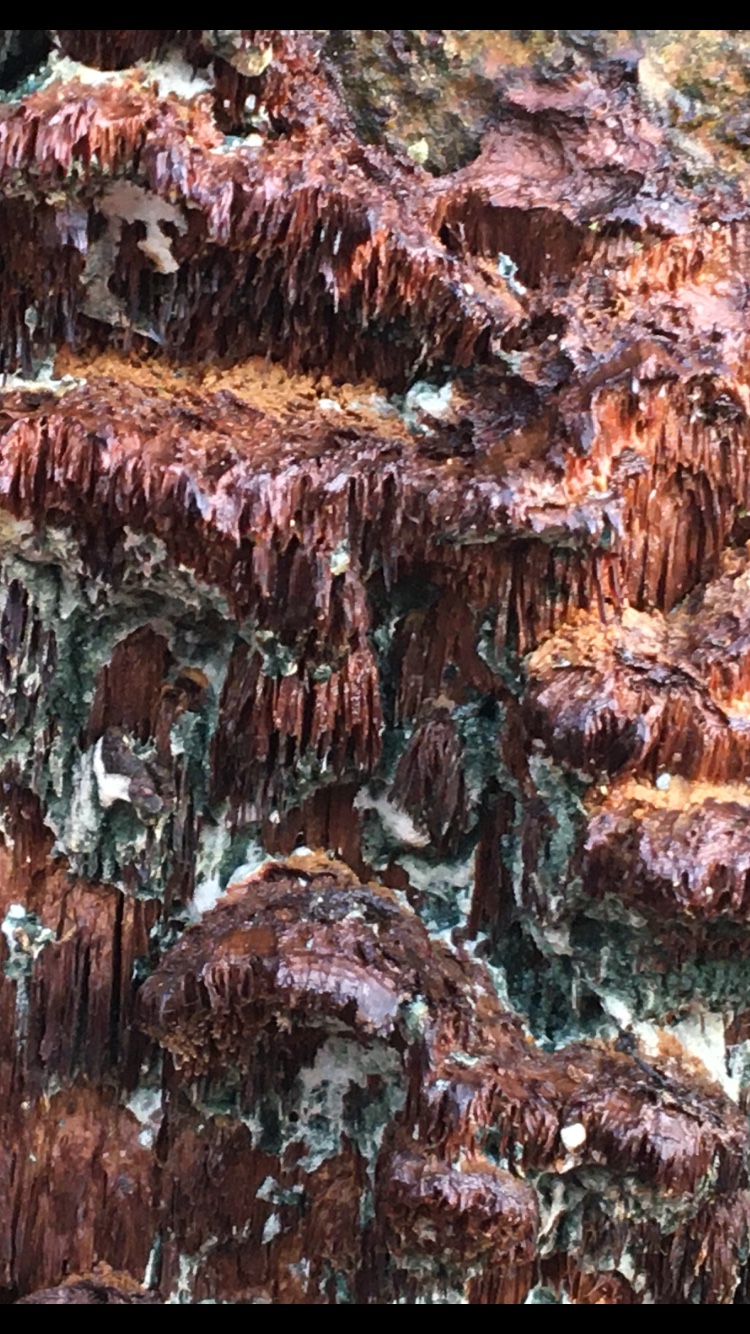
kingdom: Fungi
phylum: Basidiomycota
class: Agaricomycetes
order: Hymenochaetales
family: Hymenochaetaceae
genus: Mensularia
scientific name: Mensularia nodulosa
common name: bøge-spejlporesvamp
